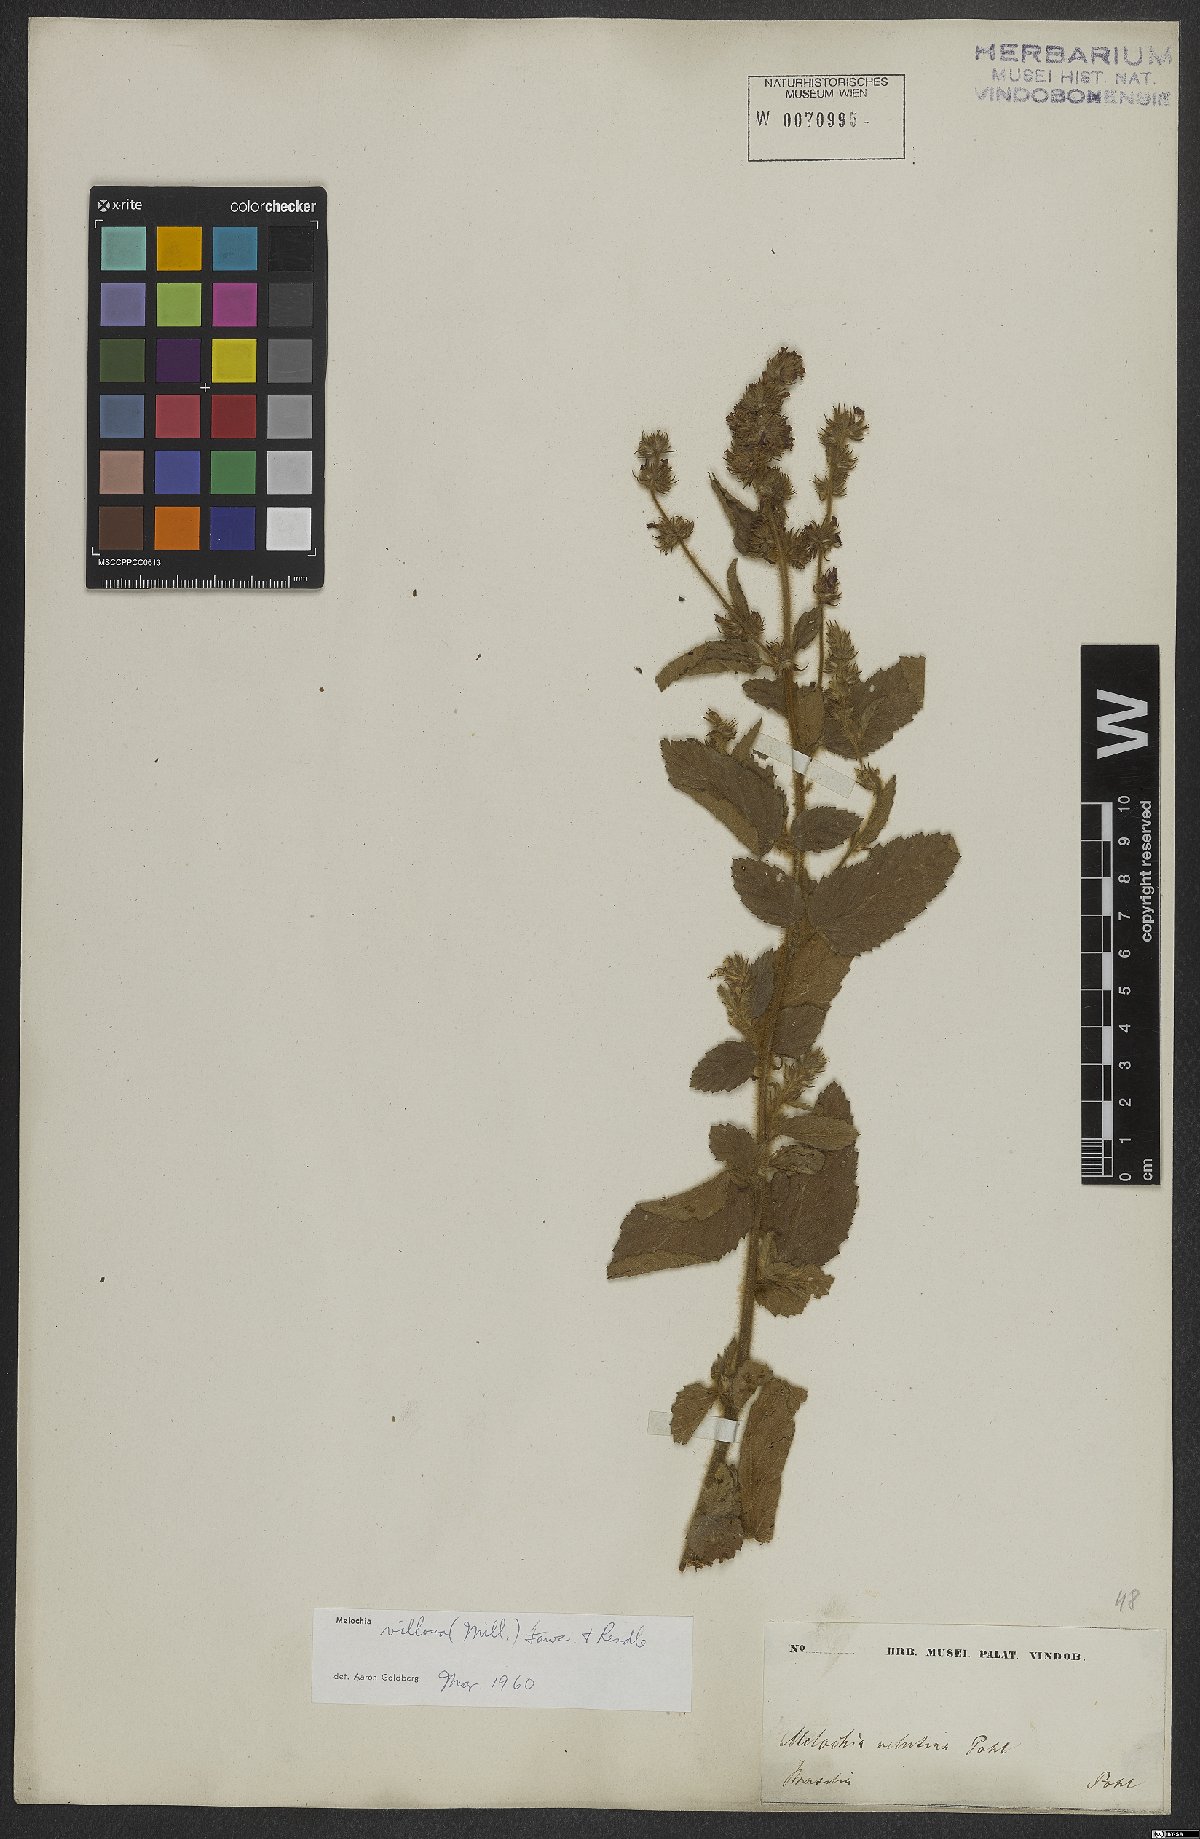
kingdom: Plantae
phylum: Tracheophyta
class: Magnoliopsida
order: Malvales
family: Malvaceae
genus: Melochia
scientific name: Melochia spicata
